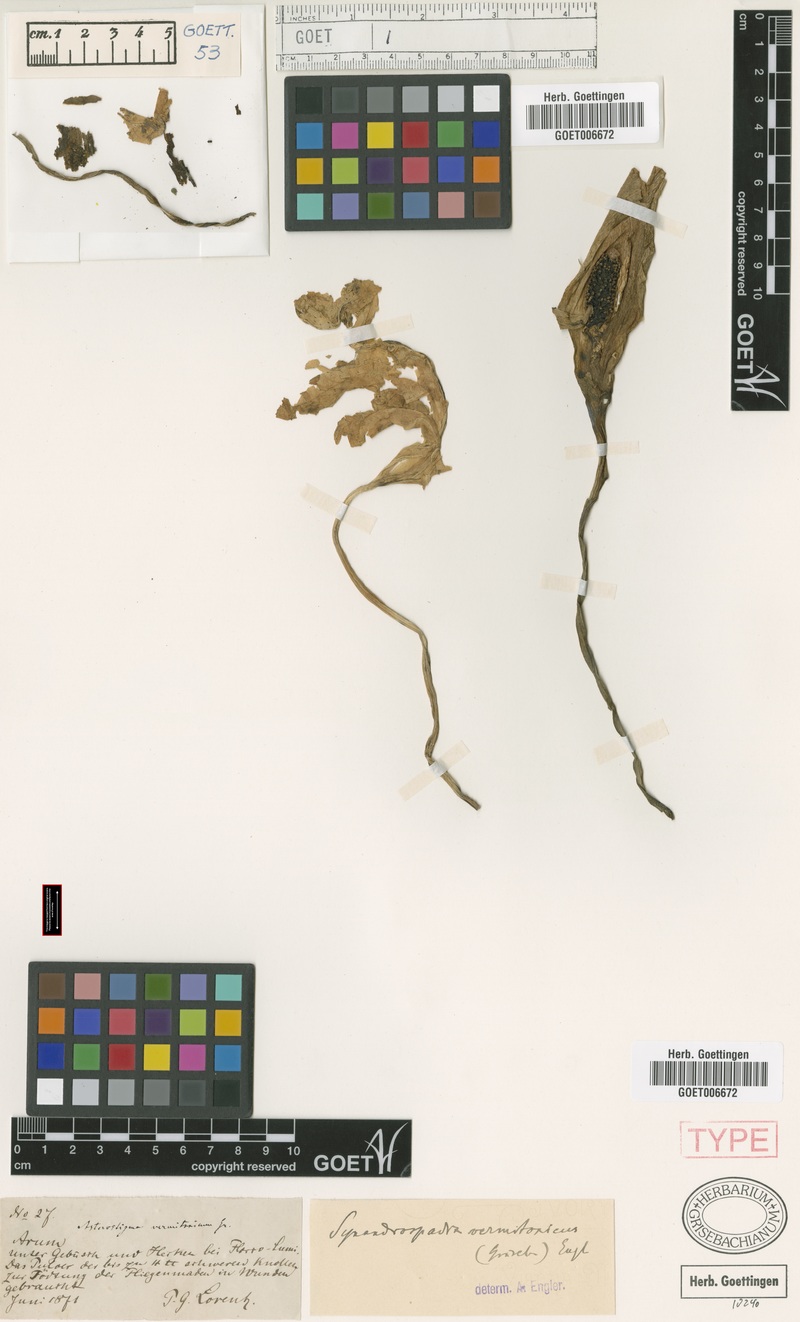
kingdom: Plantae
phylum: Tracheophyta
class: Liliopsida
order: Alismatales
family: Araceae
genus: Synandrospadix
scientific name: Synandrospadix vermitoxicus
